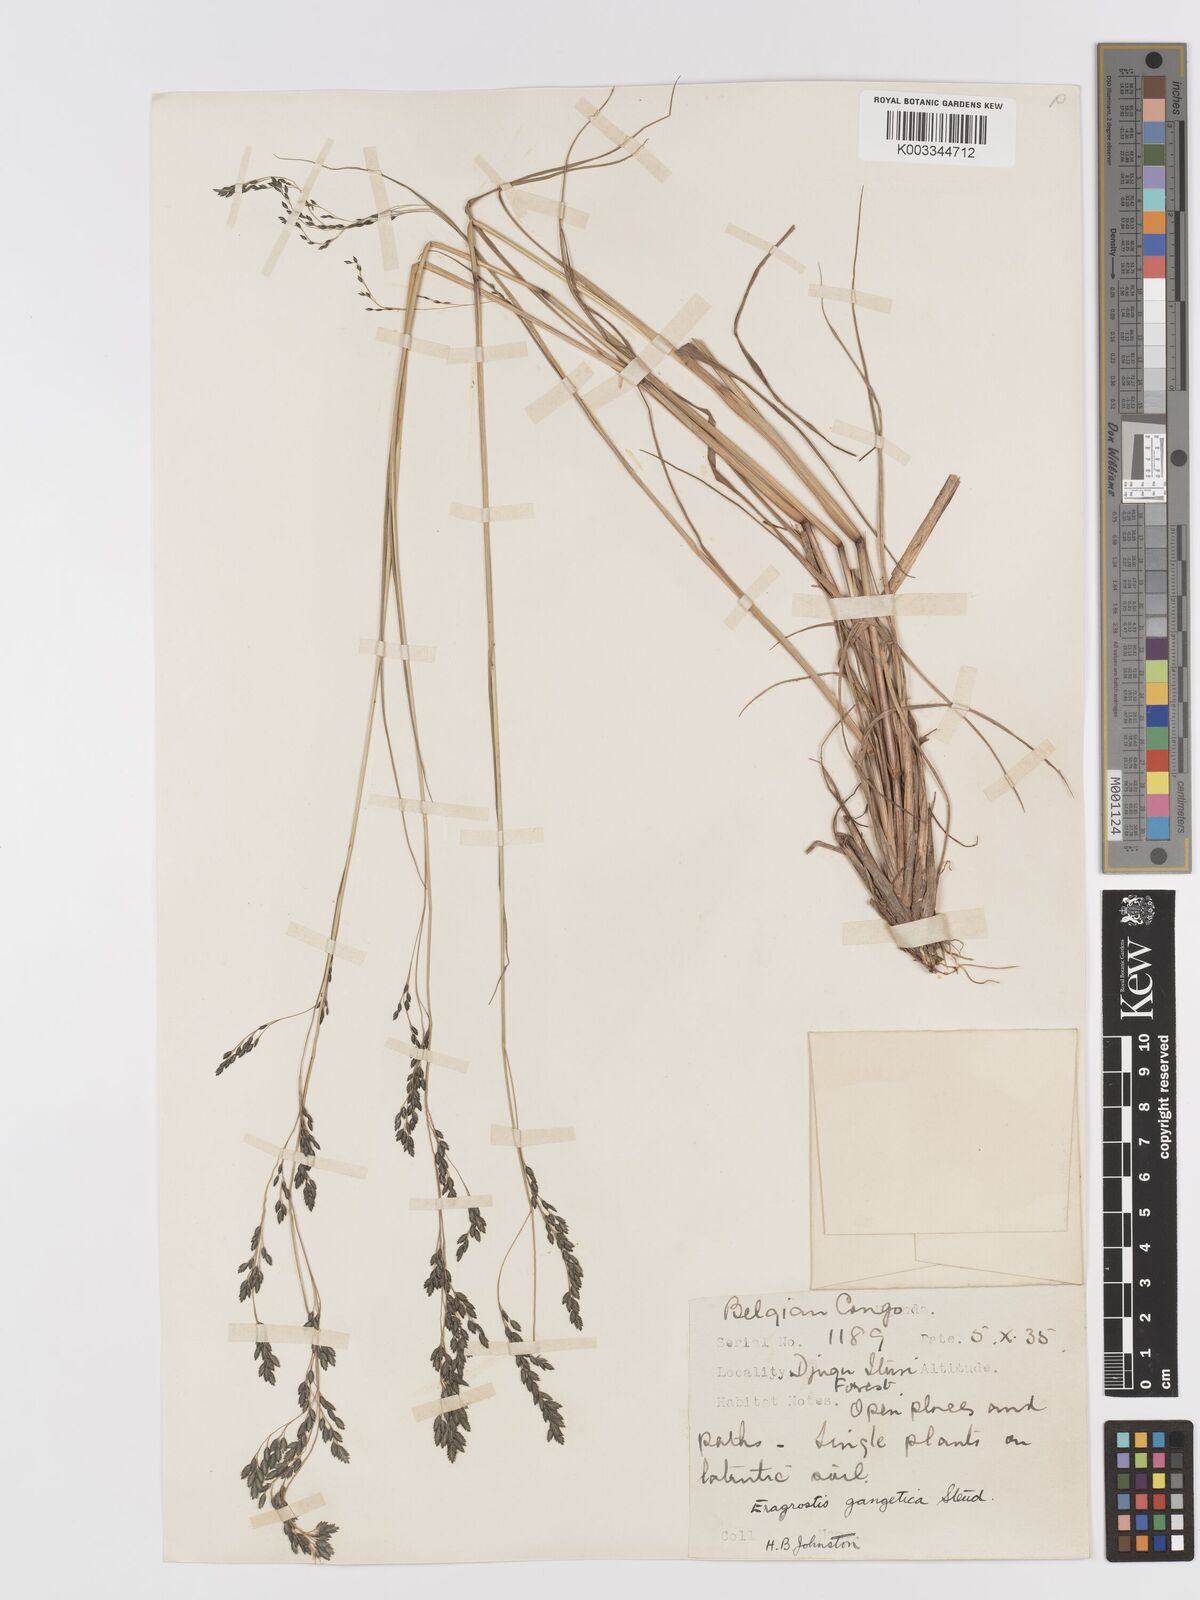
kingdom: Plantae
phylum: Tracheophyta
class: Liliopsida
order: Poales
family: Poaceae
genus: Eragrostis
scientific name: Eragrostis botryodes
